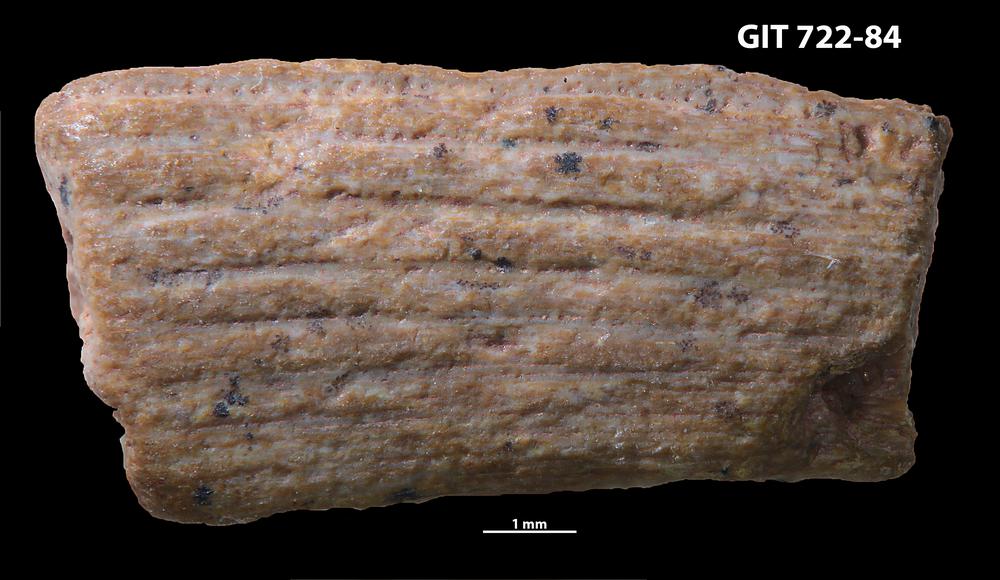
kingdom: Animalia
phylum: Chordata
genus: Devononchus
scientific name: Devononchus concinnus
